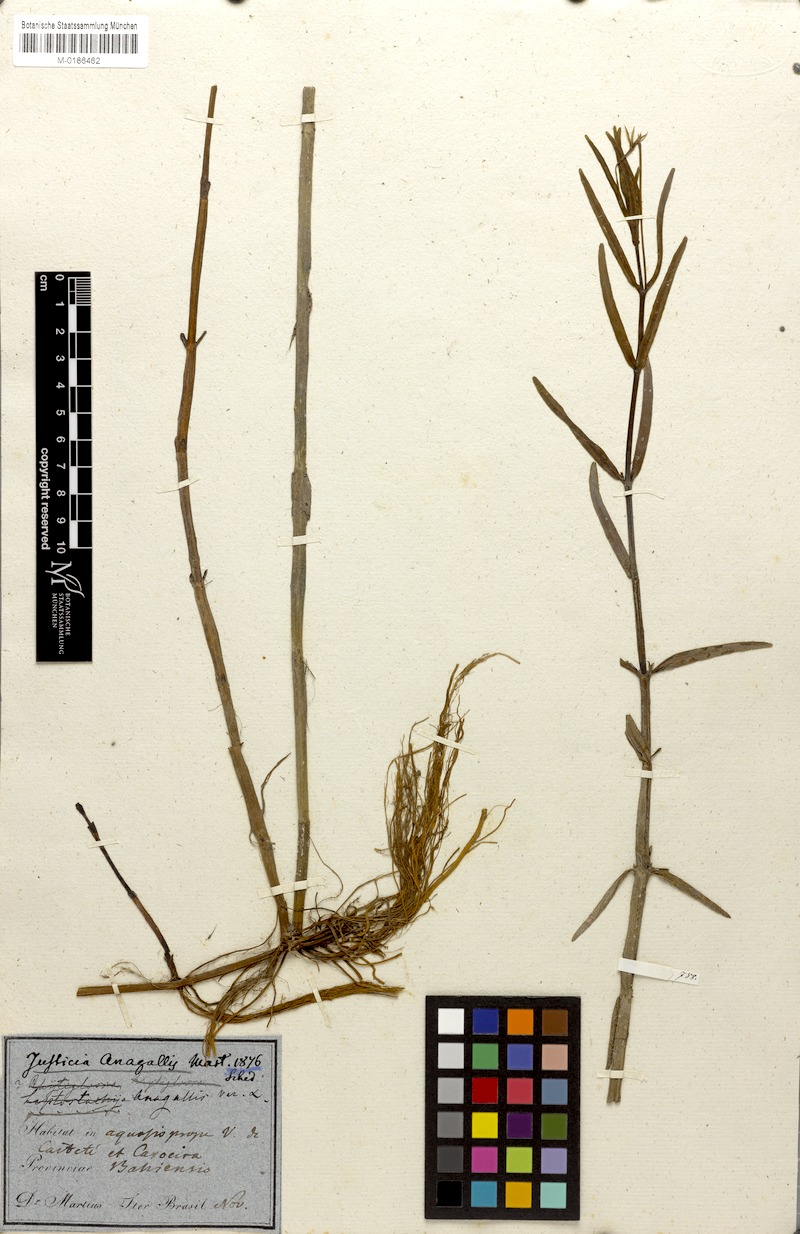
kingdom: Plantae
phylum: Tracheophyta
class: Magnoliopsida
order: Lamiales
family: Acanthaceae
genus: Dianthera
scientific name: Dianthera laevilinguis
